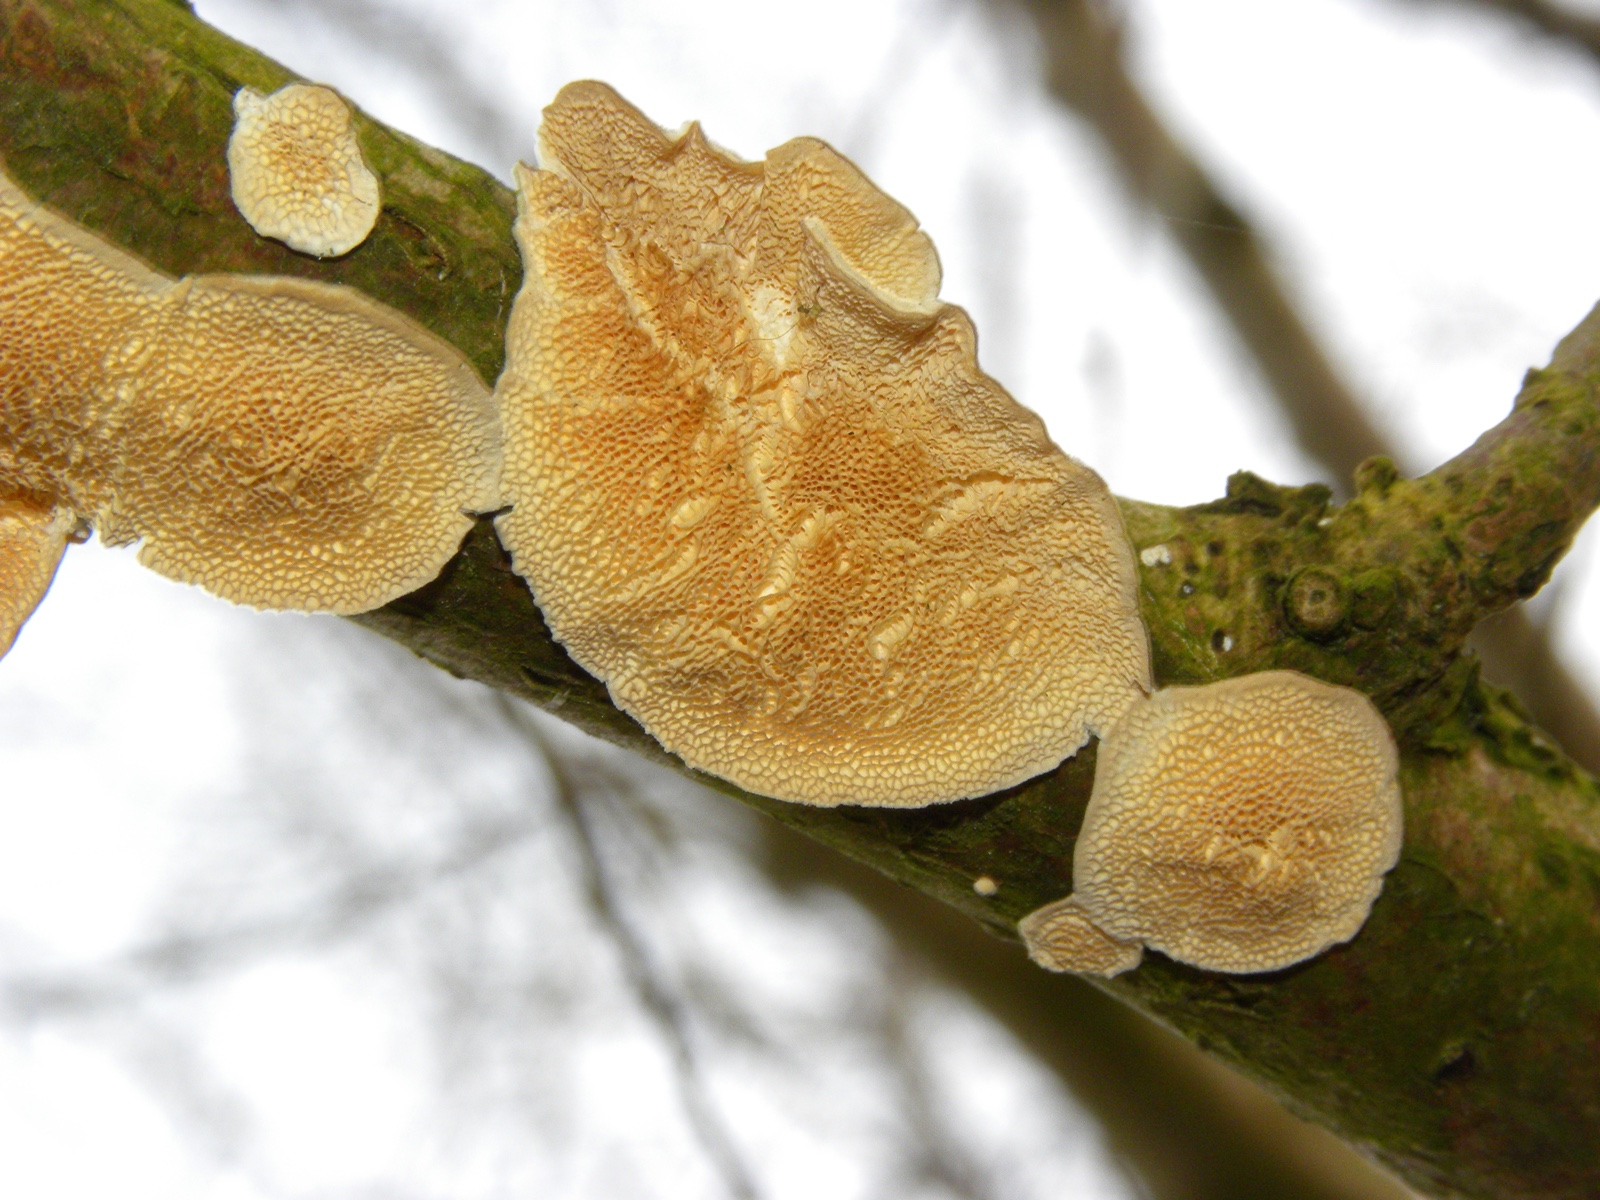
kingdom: Fungi
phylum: Basidiomycota
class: Agaricomycetes
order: Polyporales
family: Irpicaceae
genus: Byssomerulius
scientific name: Byssomerulius corium
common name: læder-åresvamp
